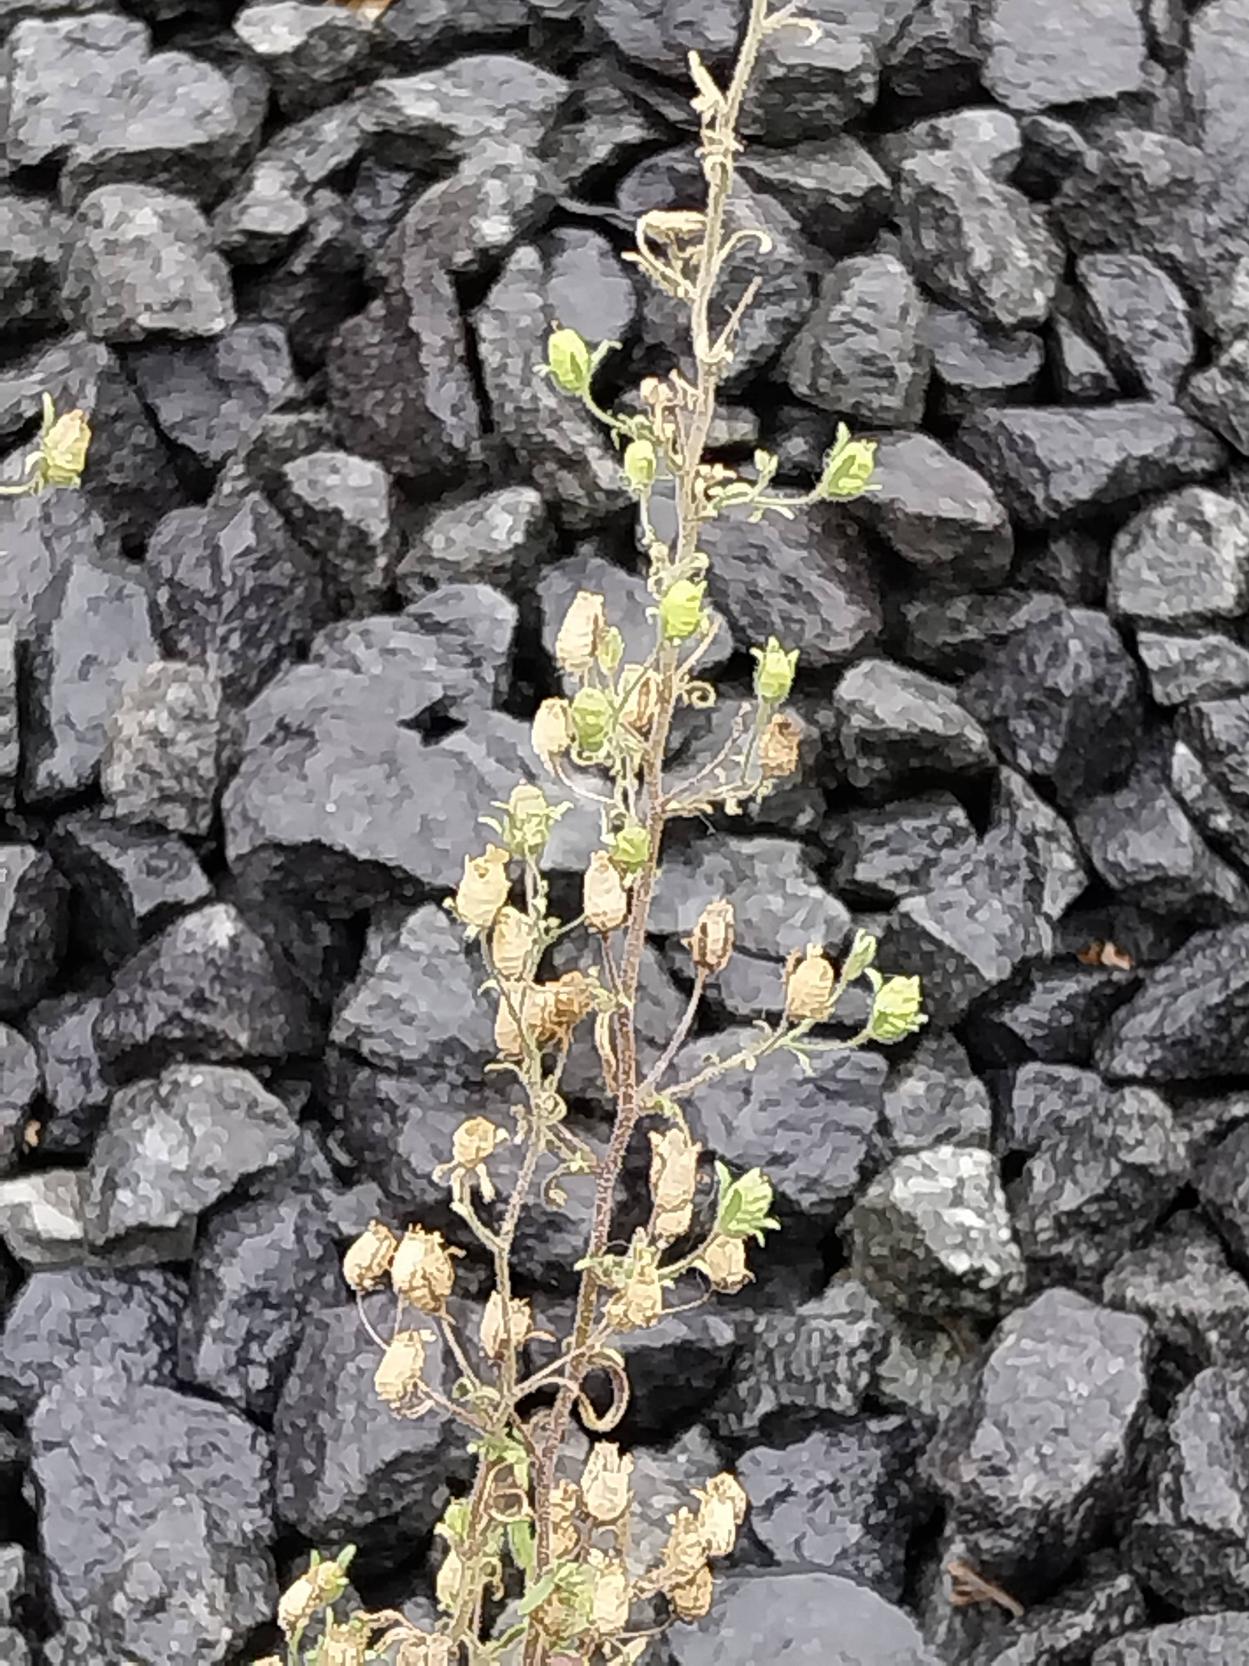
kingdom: Plantae
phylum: Tracheophyta
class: Magnoliopsida
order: Lamiales
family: Plantaginaceae
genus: Chaenorhinum
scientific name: Chaenorhinum minus
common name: Liden torskemund
